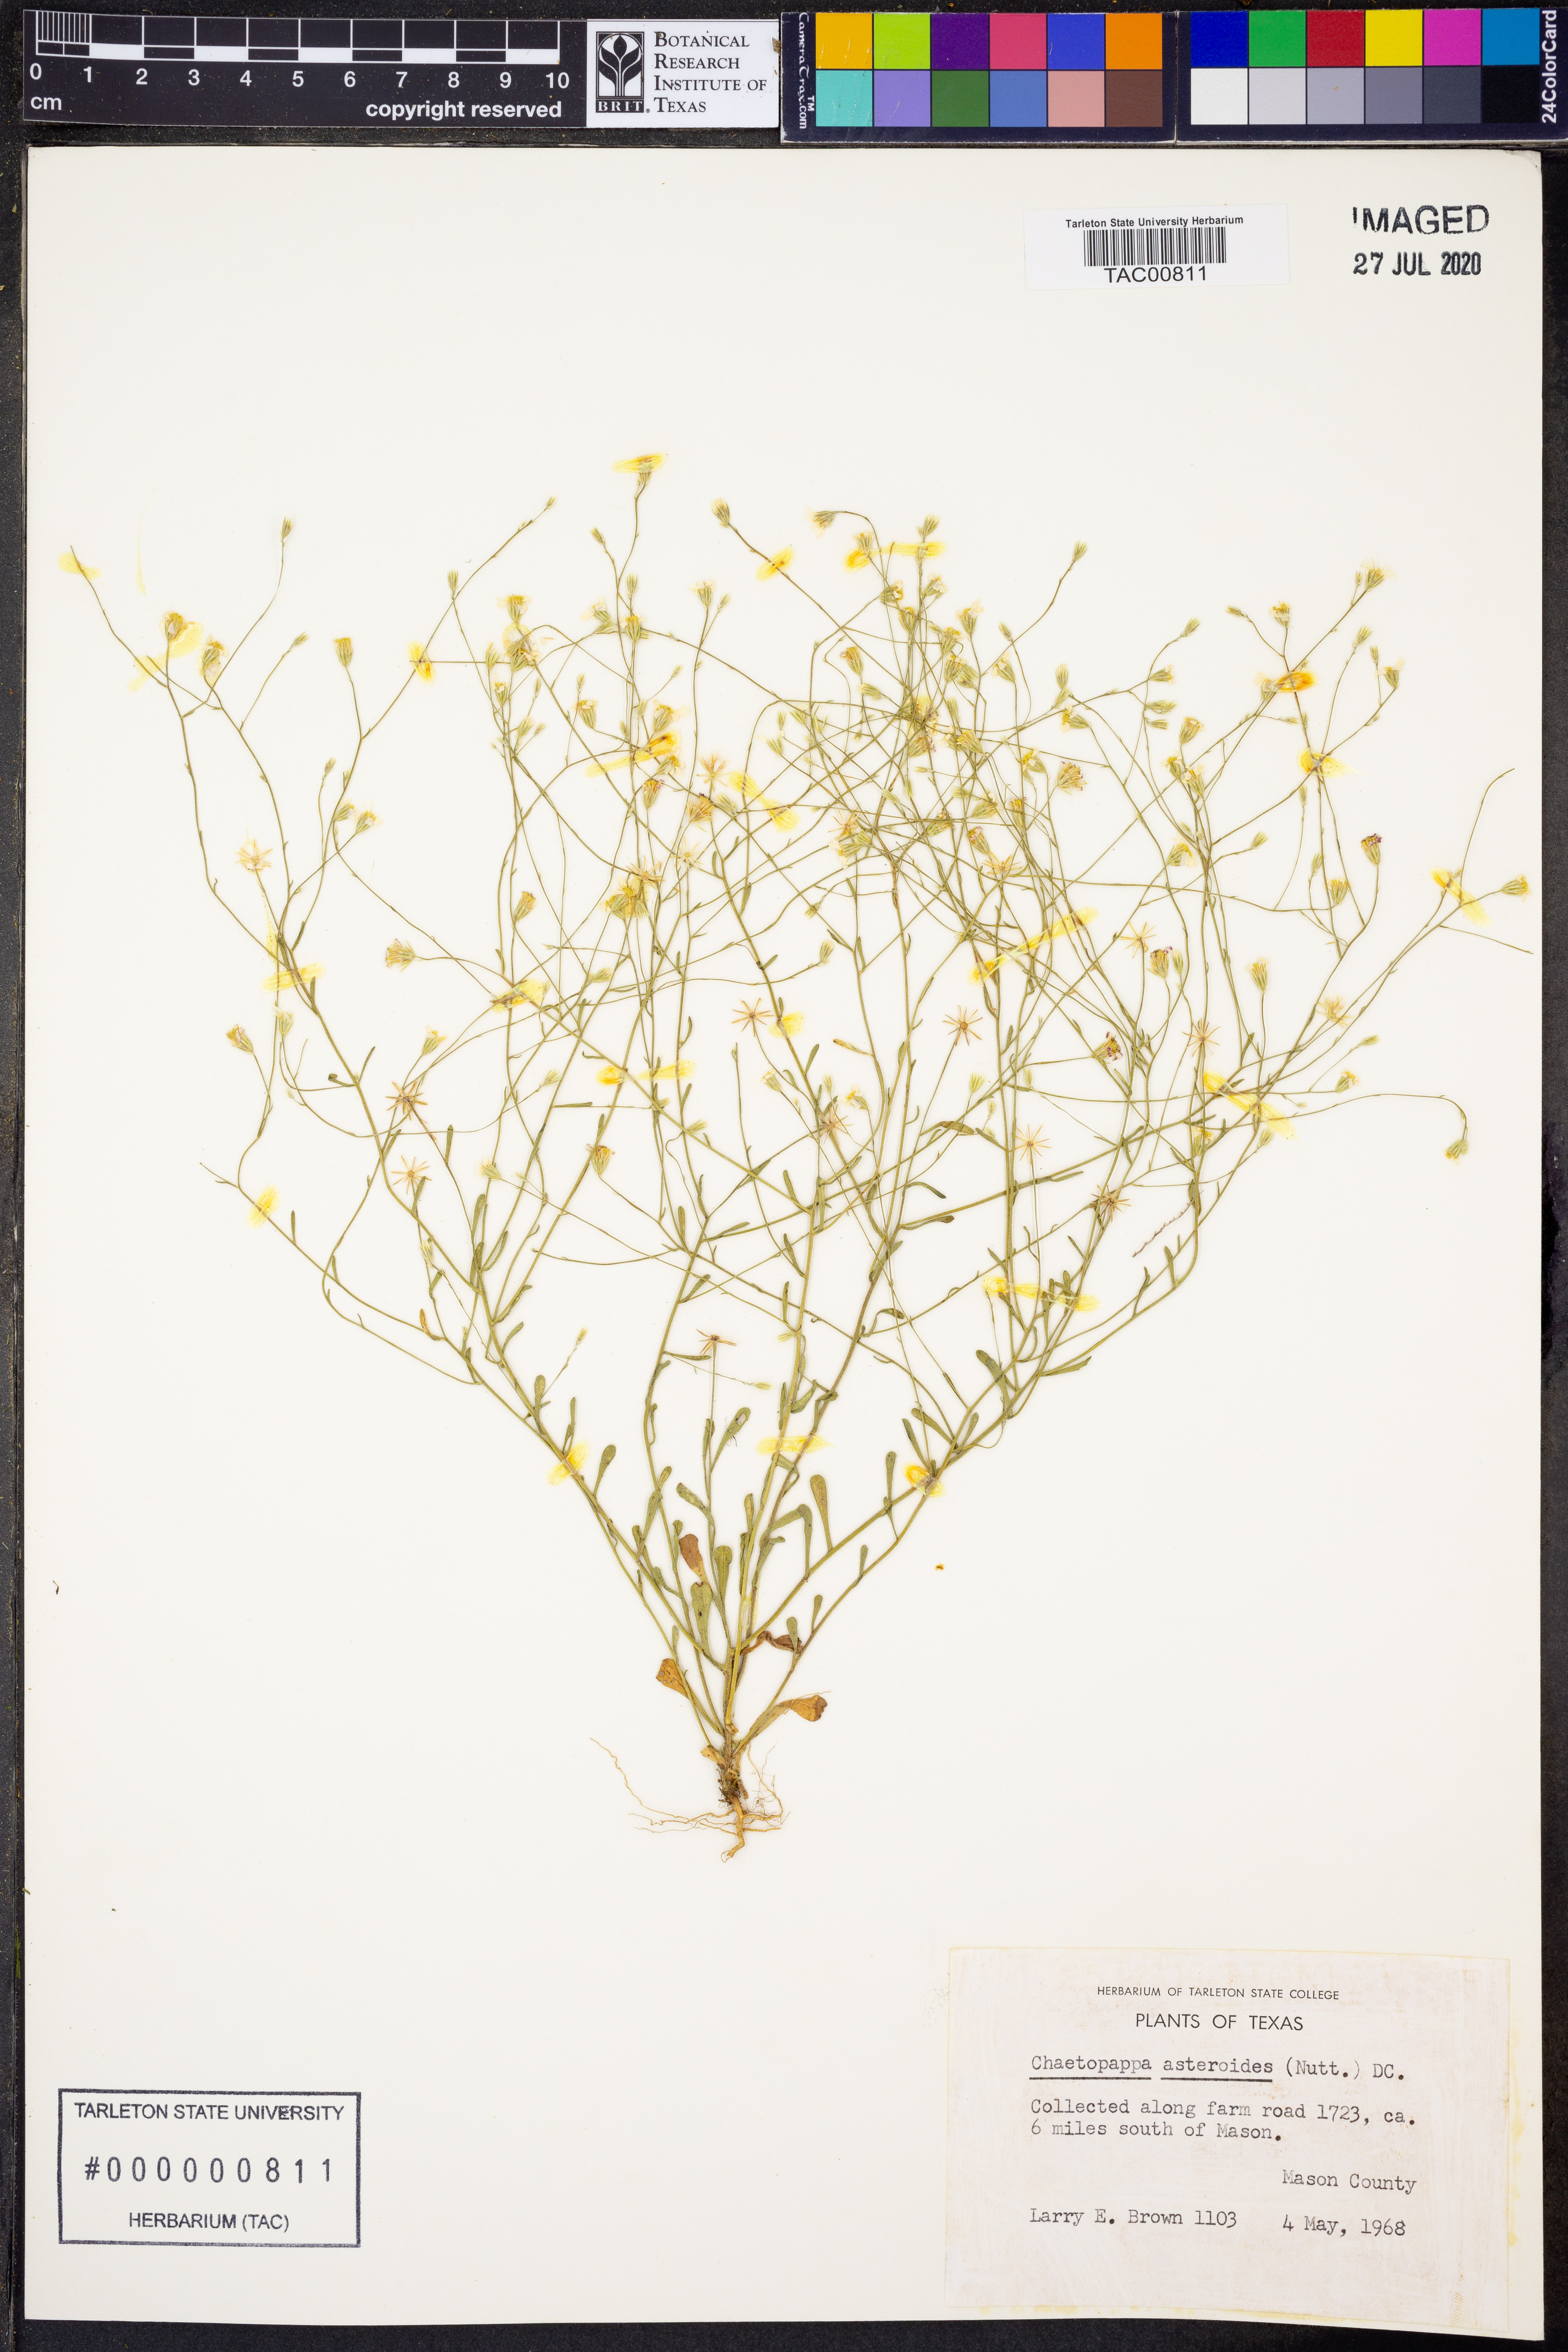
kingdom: Plantae
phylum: Tracheophyta
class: Magnoliopsida
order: Asterales
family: Asteraceae
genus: Chaetopappa
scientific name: Chaetopappa asteroides
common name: Tiny lazy daisy
